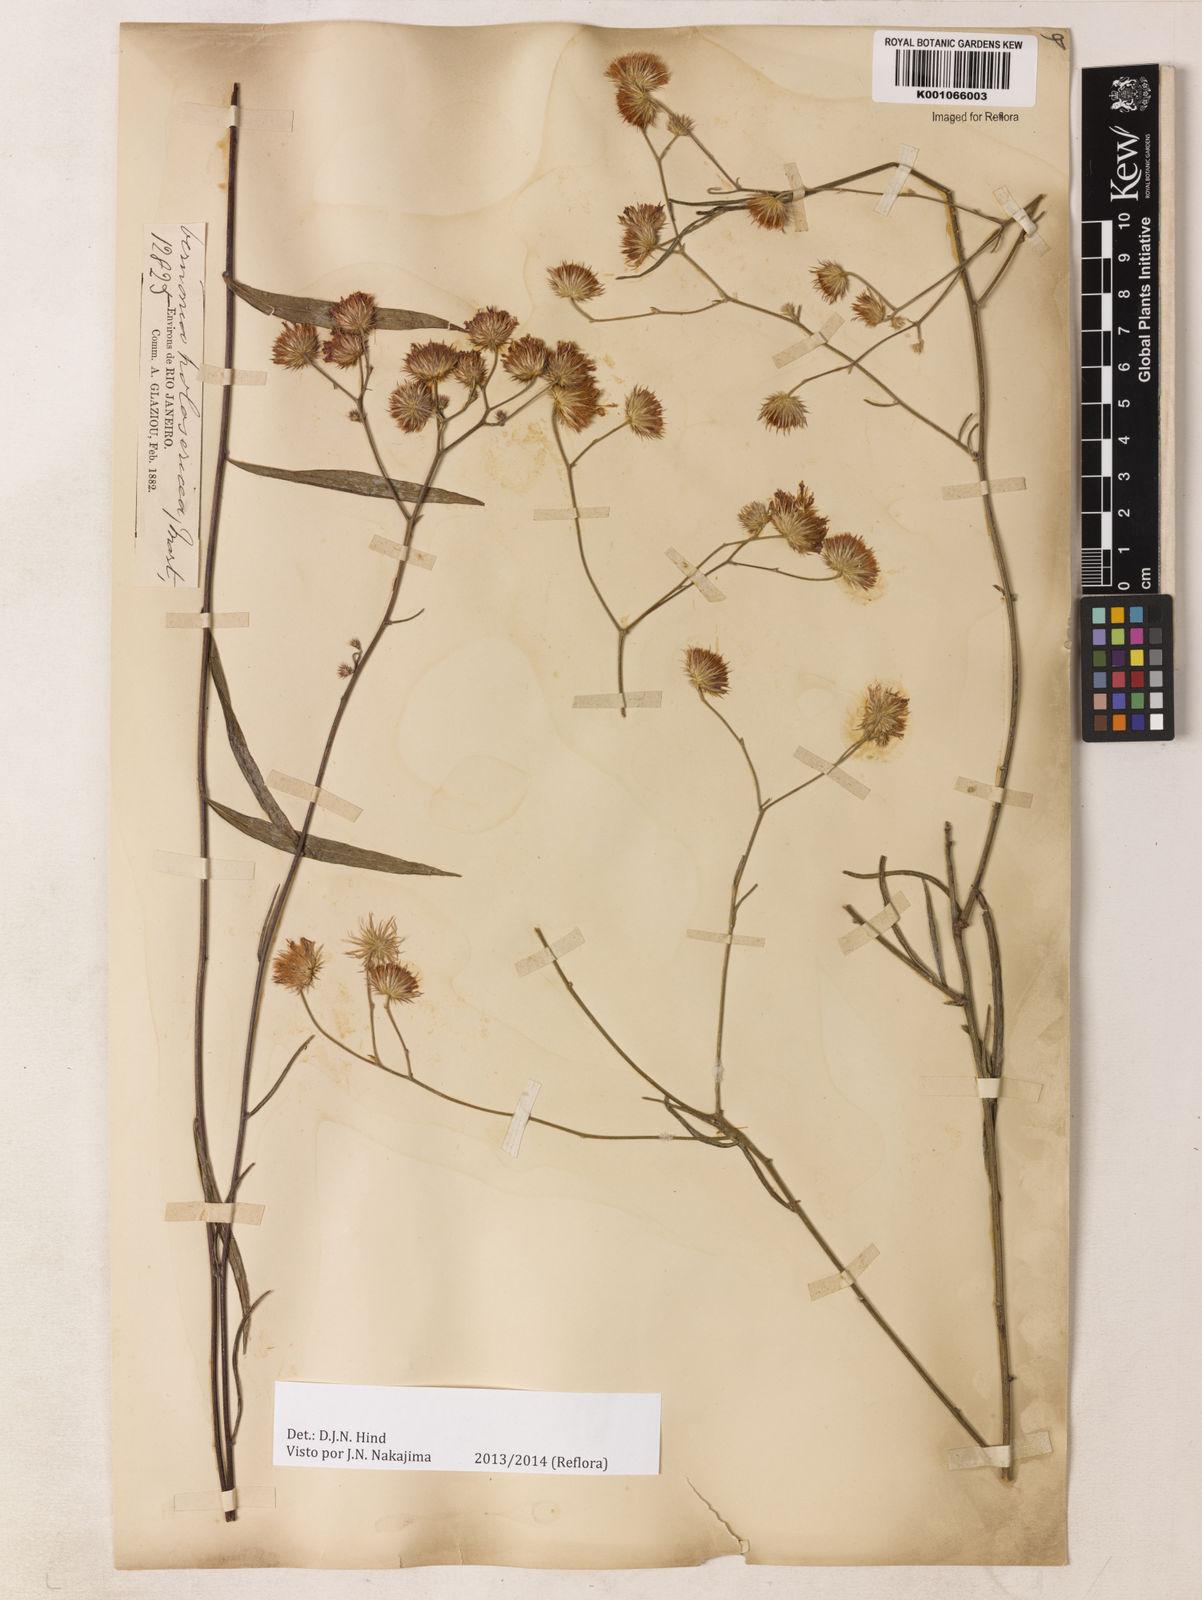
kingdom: Plantae
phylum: Tracheophyta
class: Magnoliopsida
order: Asterales
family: Asteraceae
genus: Echinocoryne
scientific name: Echinocoryne holosericea
